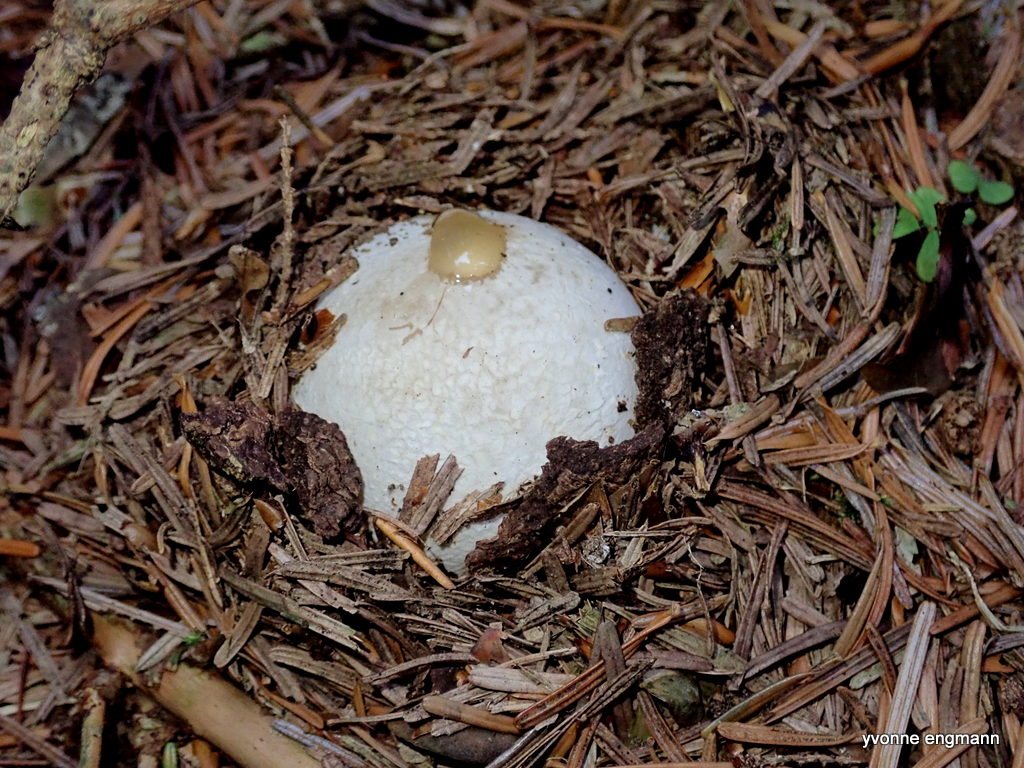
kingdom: Fungi
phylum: Basidiomycota
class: Agaricomycetes
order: Phallales
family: Phallaceae
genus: Phallus
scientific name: Phallus impudicus
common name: almindelig stinksvamp
